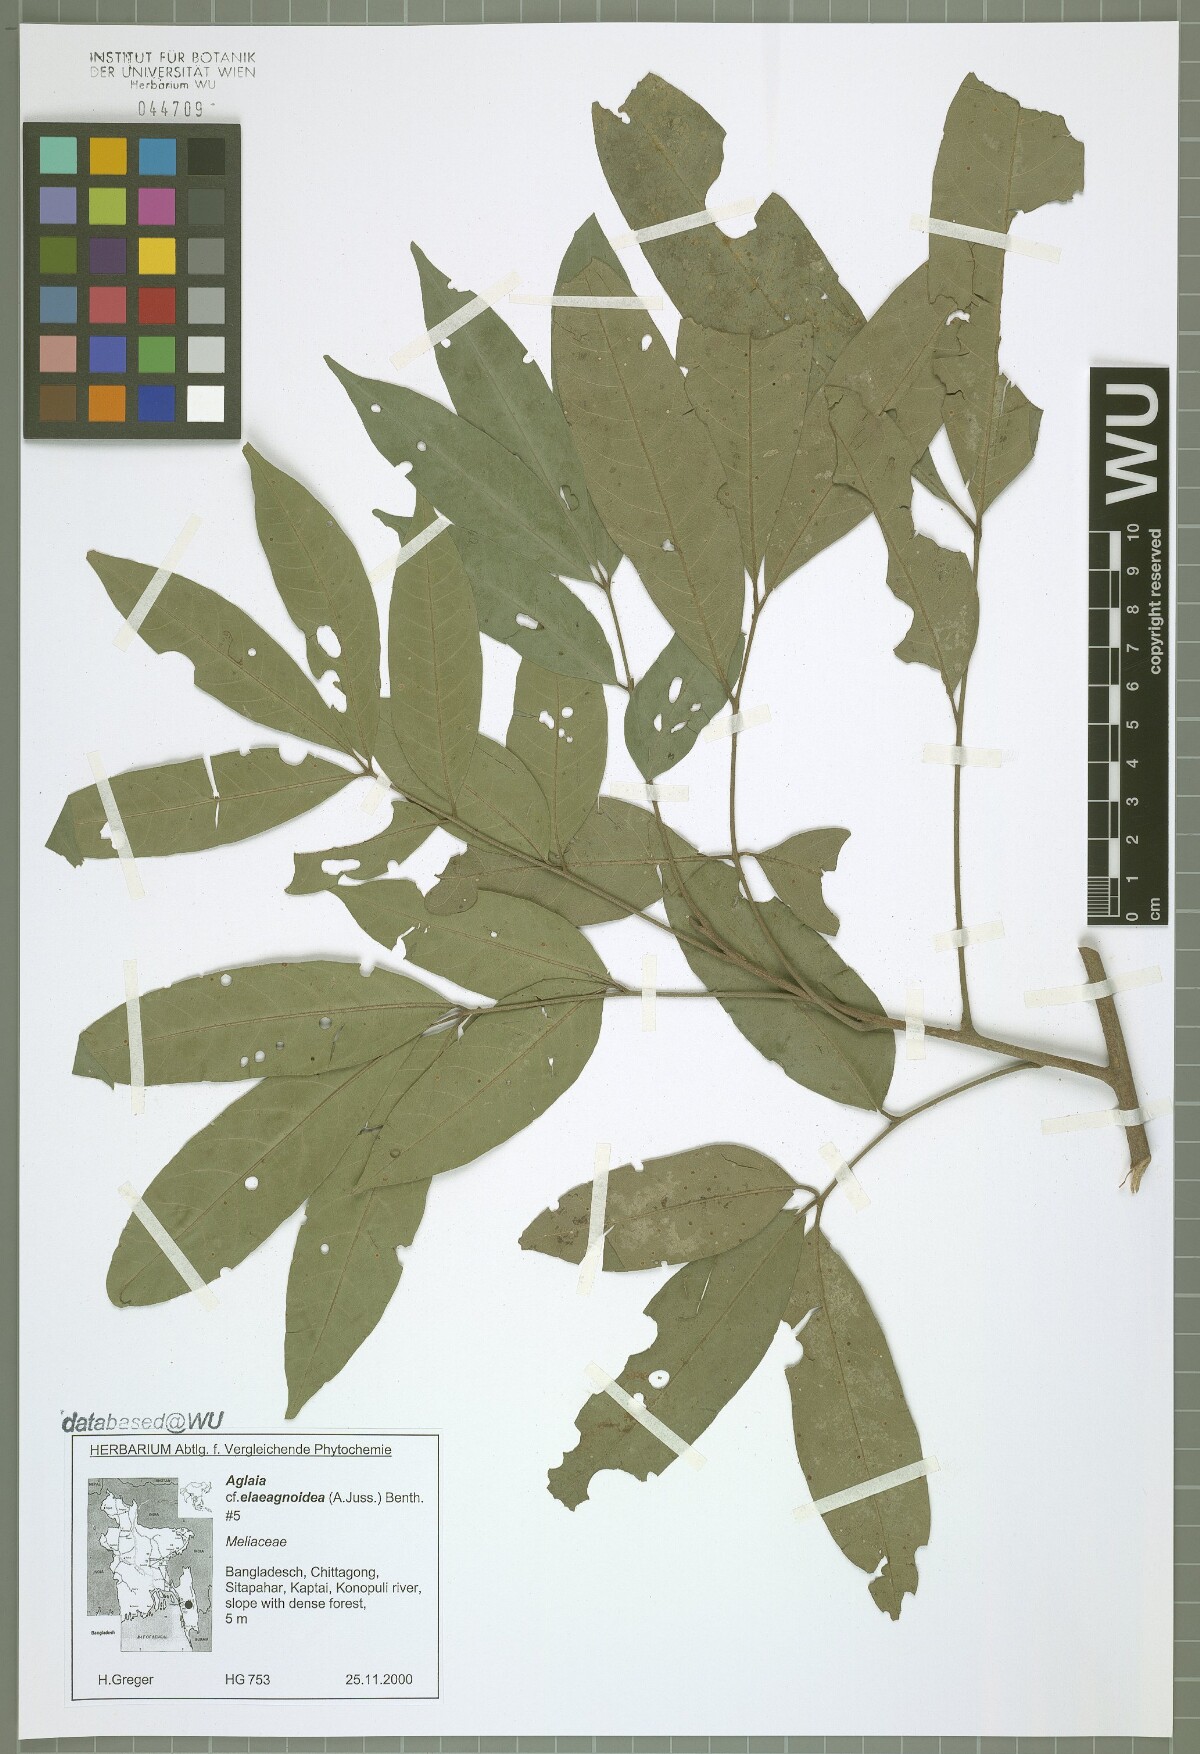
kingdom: Plantae
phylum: Tracheophyta
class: Magnoliopsida
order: Sapindales
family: Meliaceae
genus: Aglaia
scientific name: Aglaia elaeagnoidea
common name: Droopyleaf
